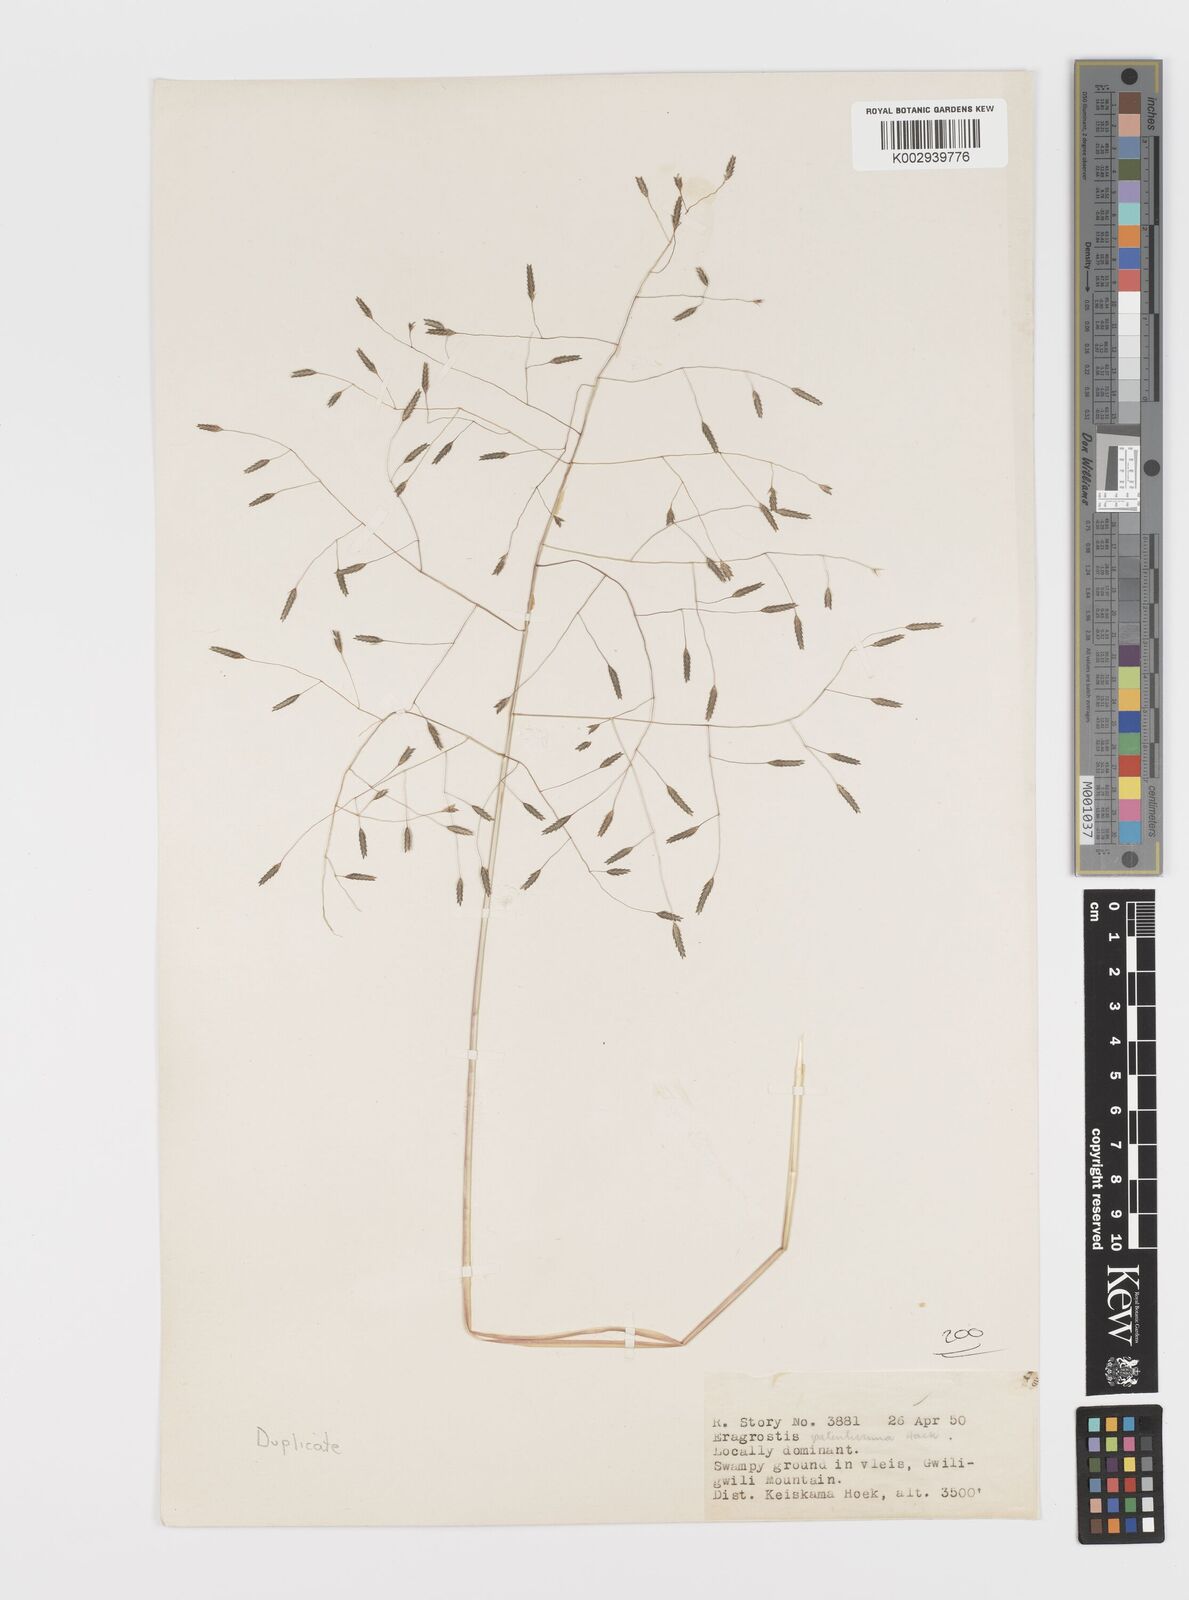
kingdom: Plantae
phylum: Tracheophyta
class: Liliopsida
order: Poales
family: Poaceae
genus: Eragrostis
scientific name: Eragrostis patentissima
